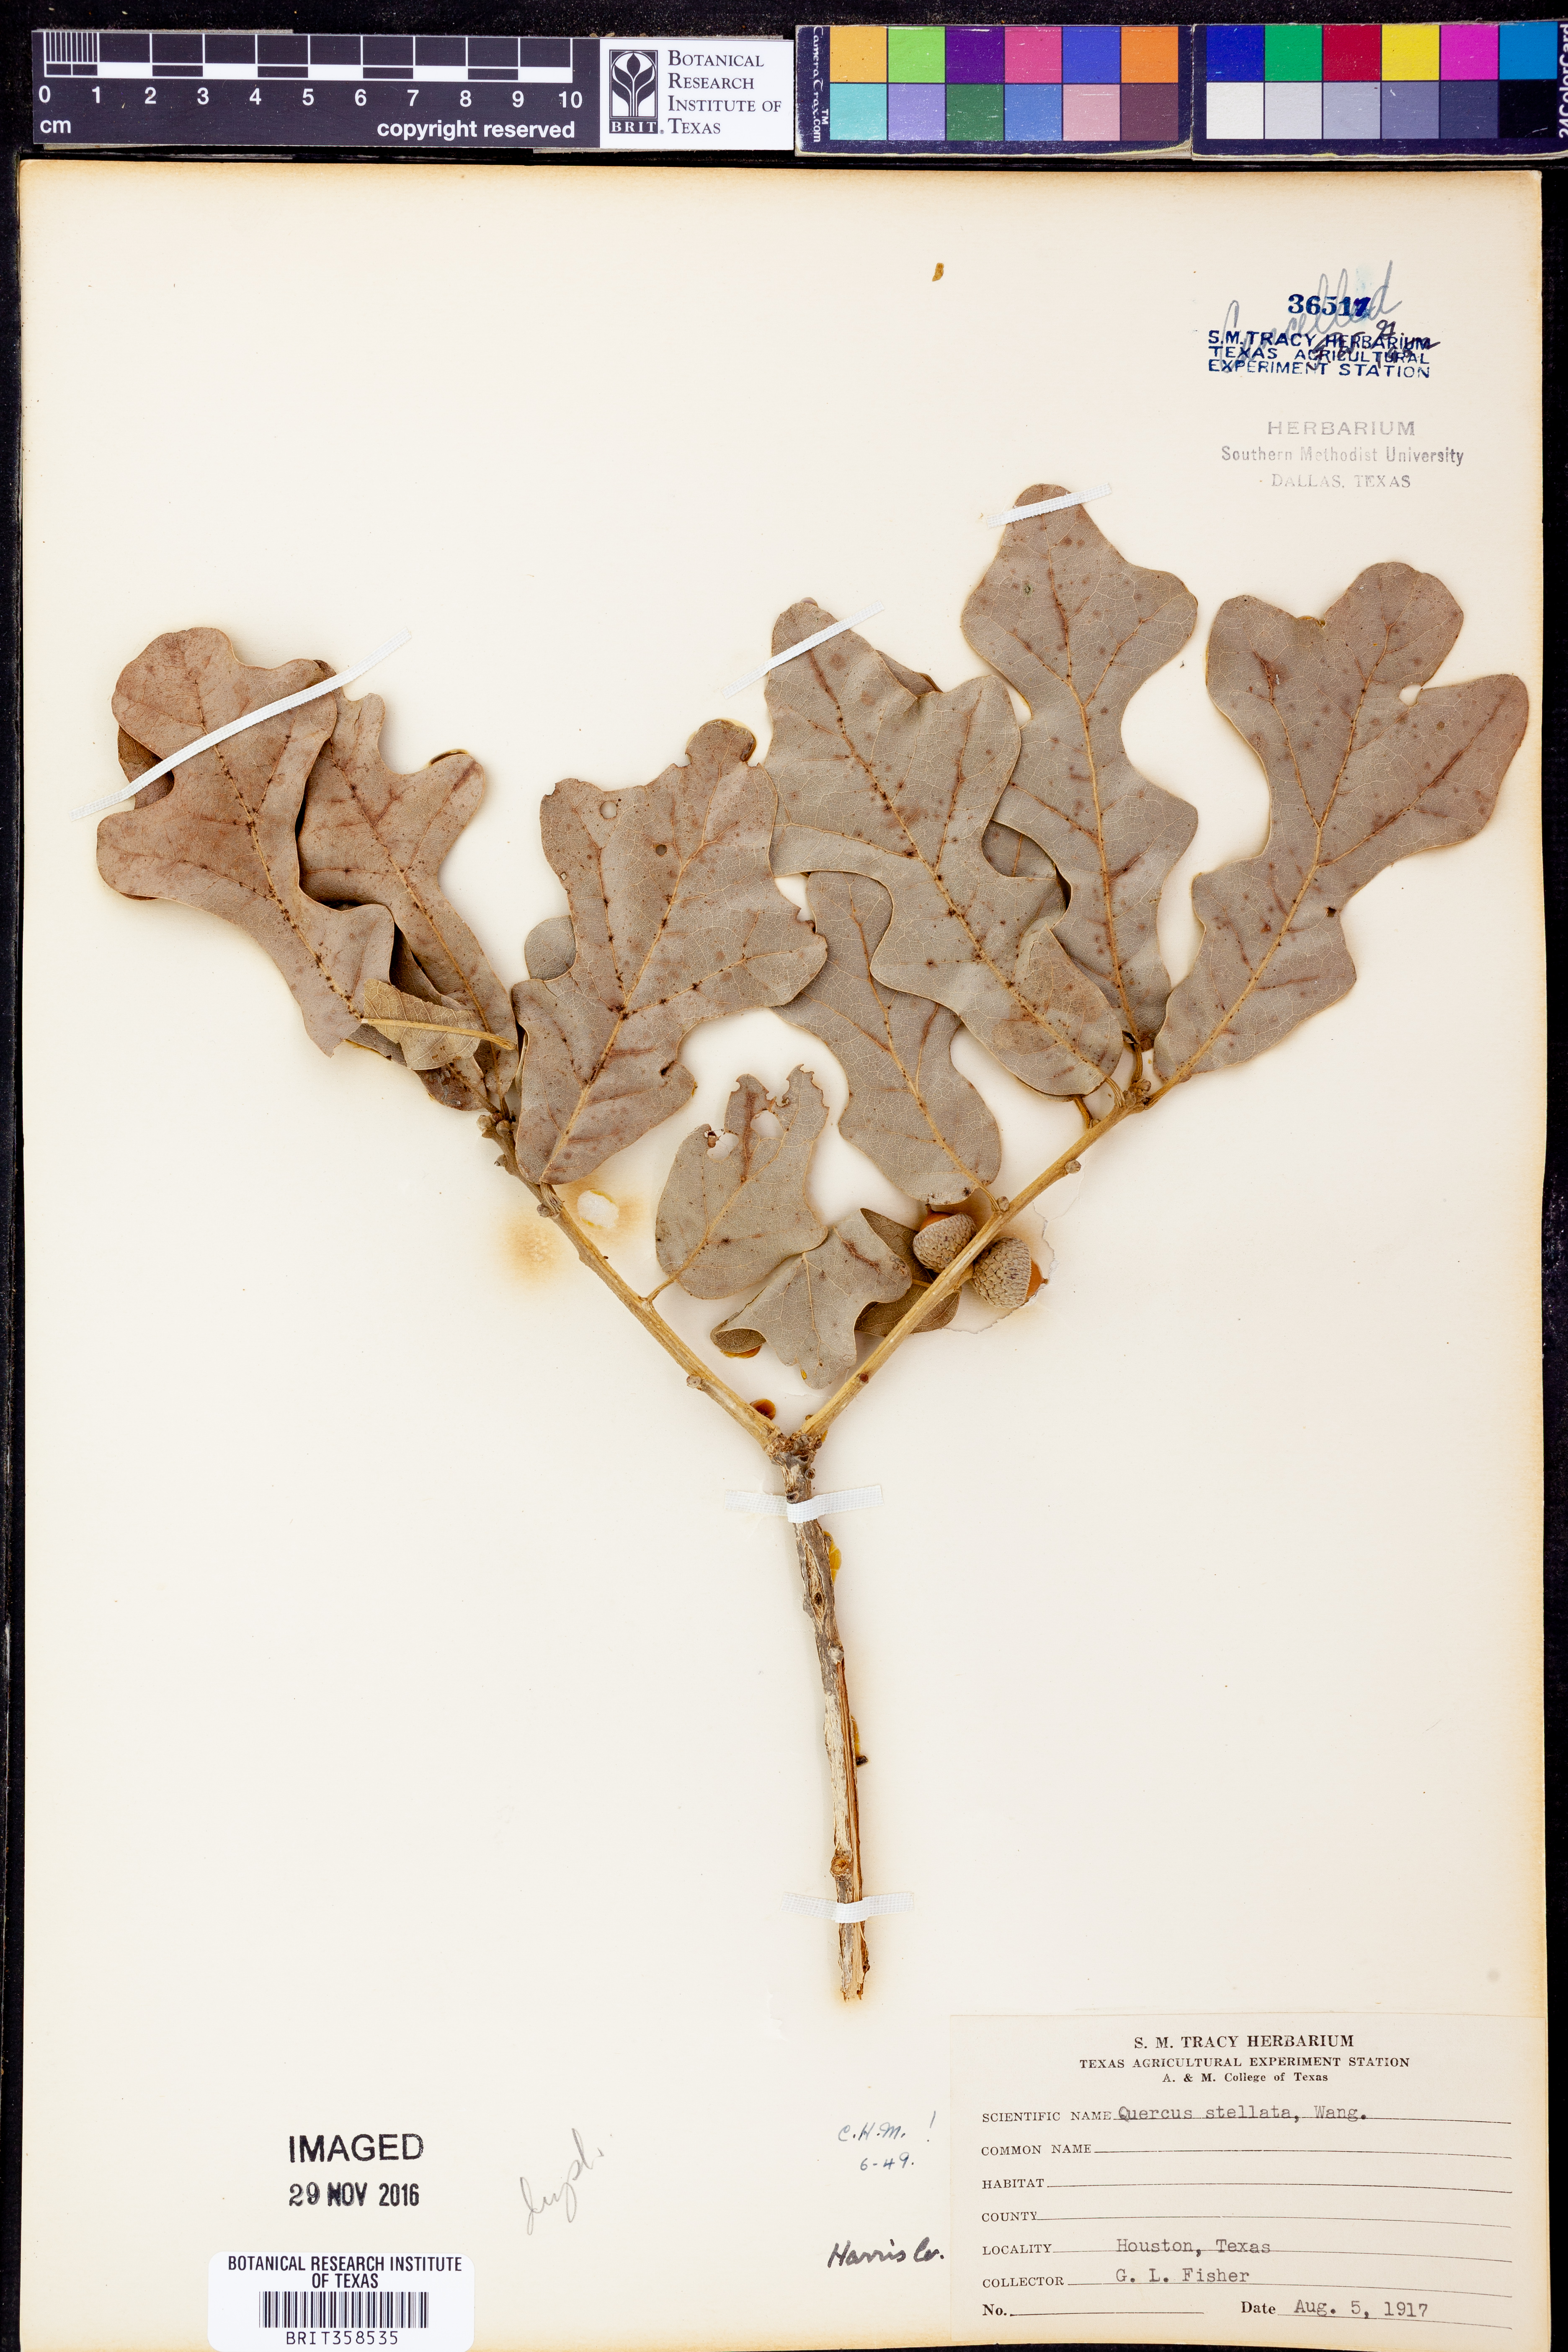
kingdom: Plantae
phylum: Tracheophyta
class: Magnoliopsida
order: Fagales
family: Fagaceae
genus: Quercus
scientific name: Quercus stellata
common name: Post oak
